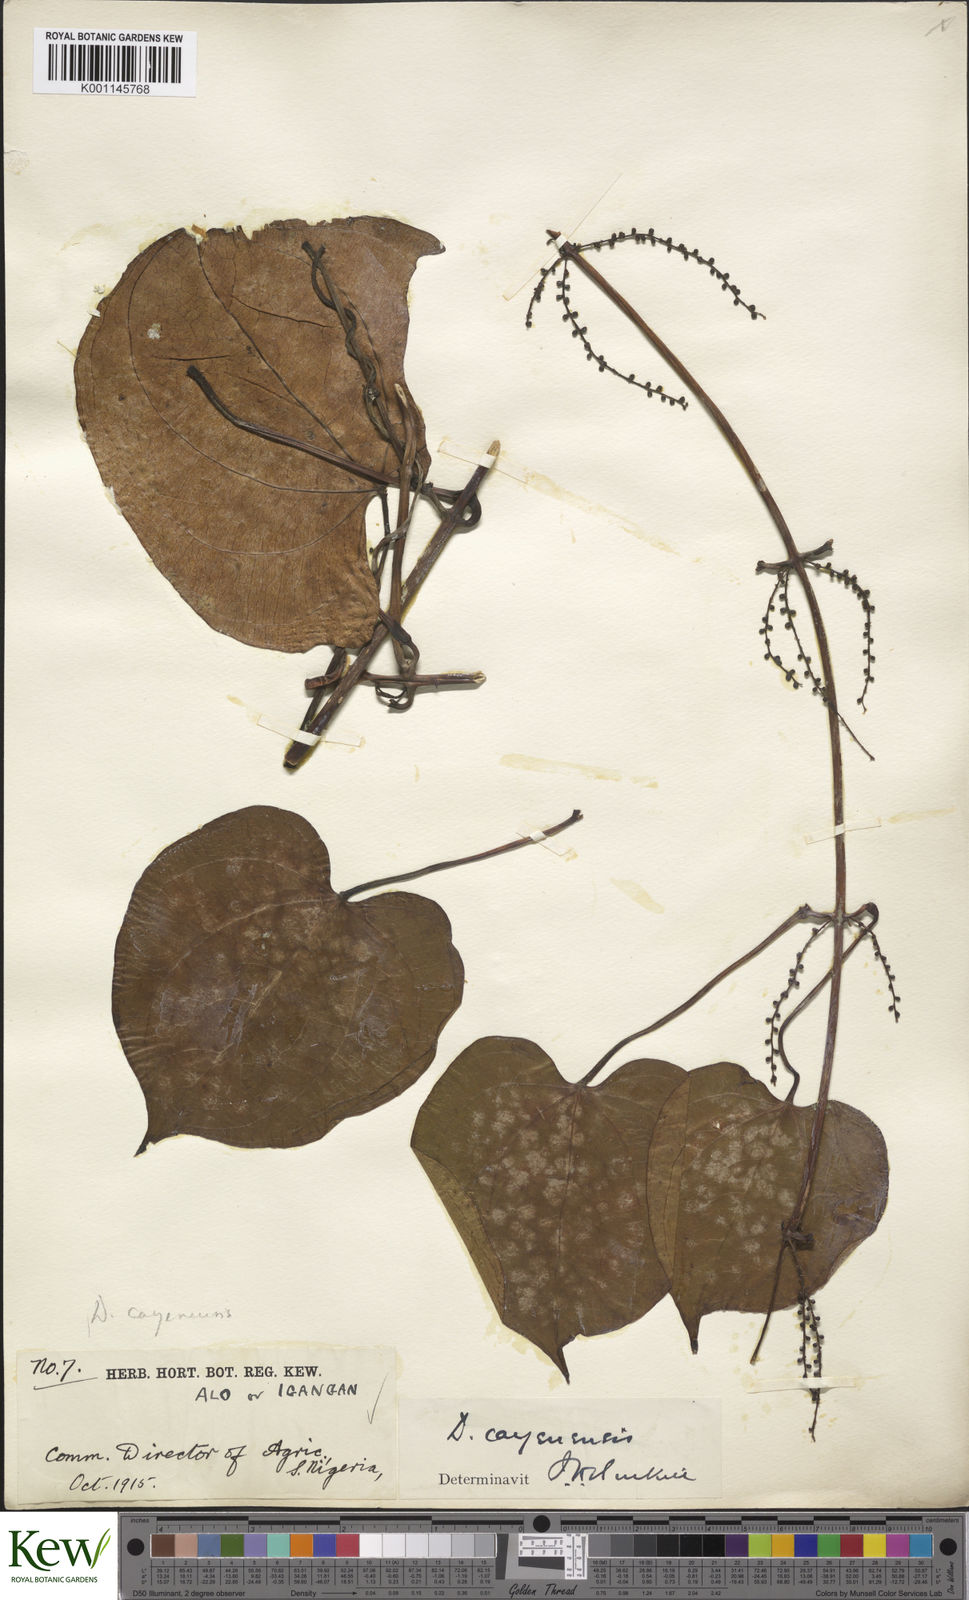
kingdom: Plantae
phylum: Tracheophyta
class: Liliopsida
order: Dioscoreales
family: Dioscoreaceae
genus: Dioscorea
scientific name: Dioscorea cayenensis
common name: Attoto yam
